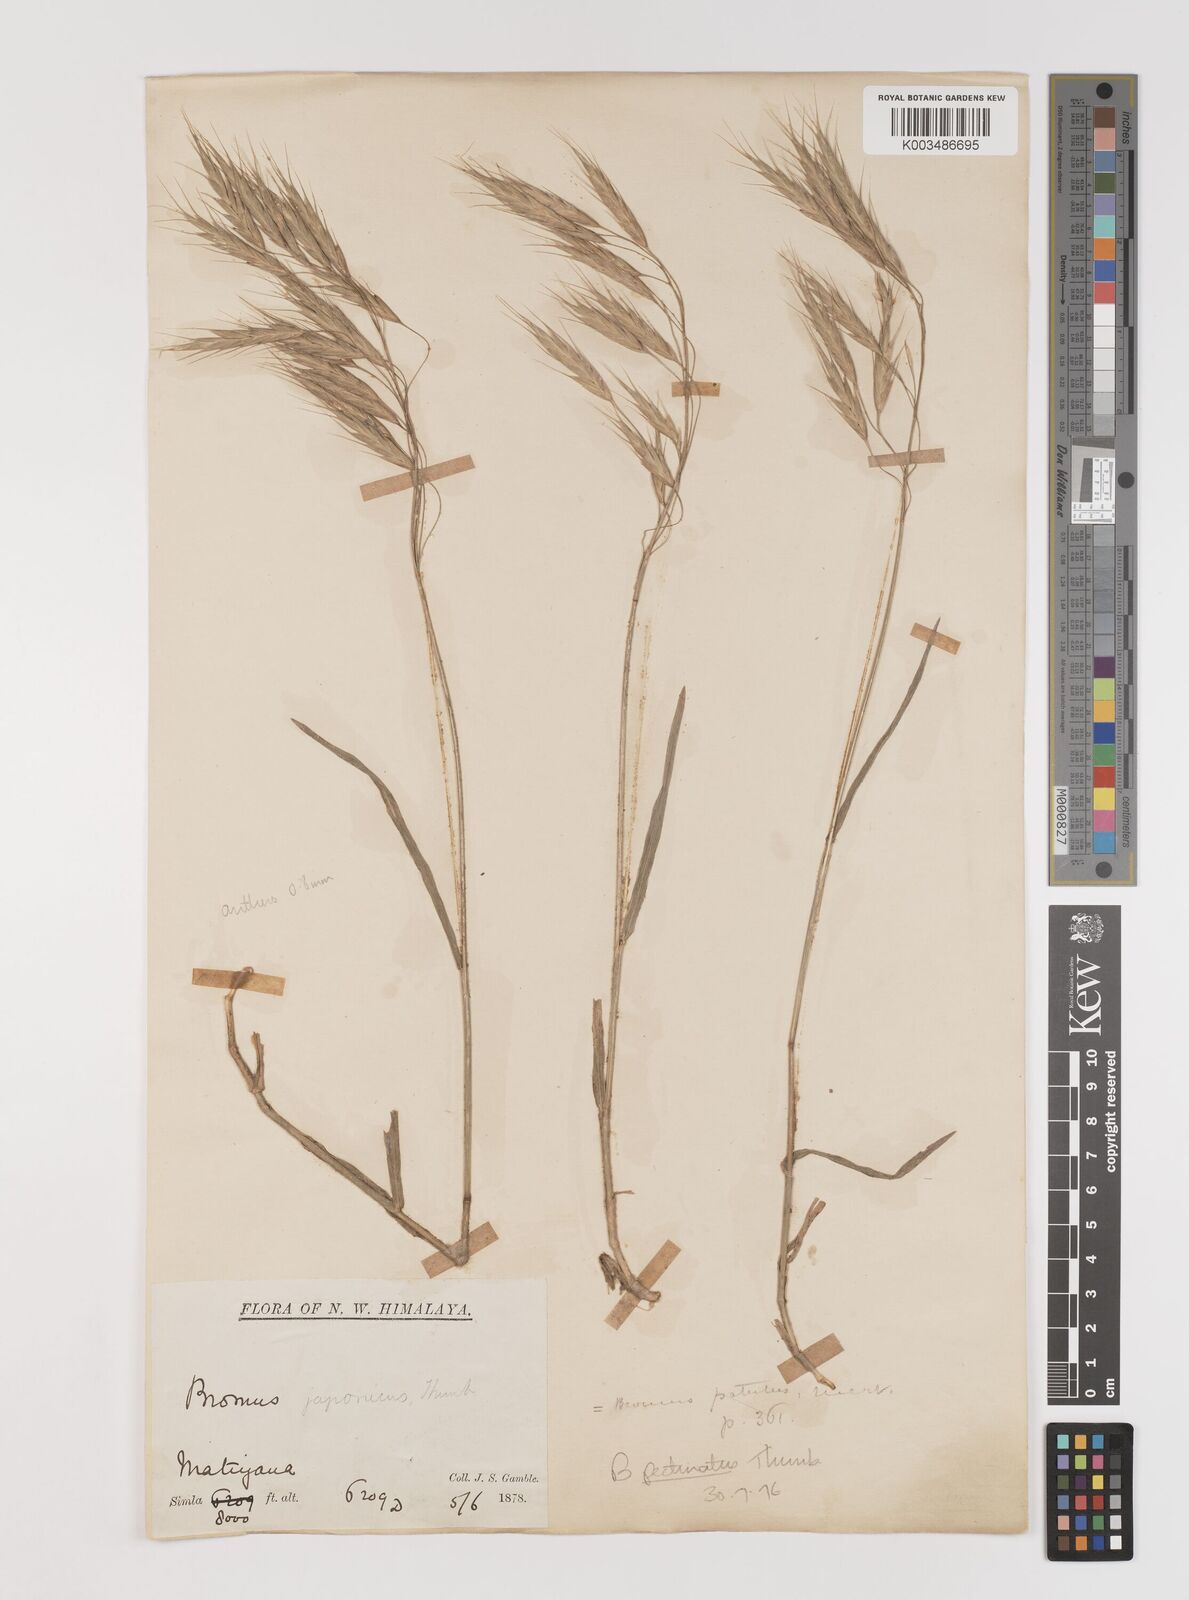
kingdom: Plantae
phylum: Tracheophyta
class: Liliopsida
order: Poales
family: Poaceae
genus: Bromus
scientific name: Bromus pectinatus
